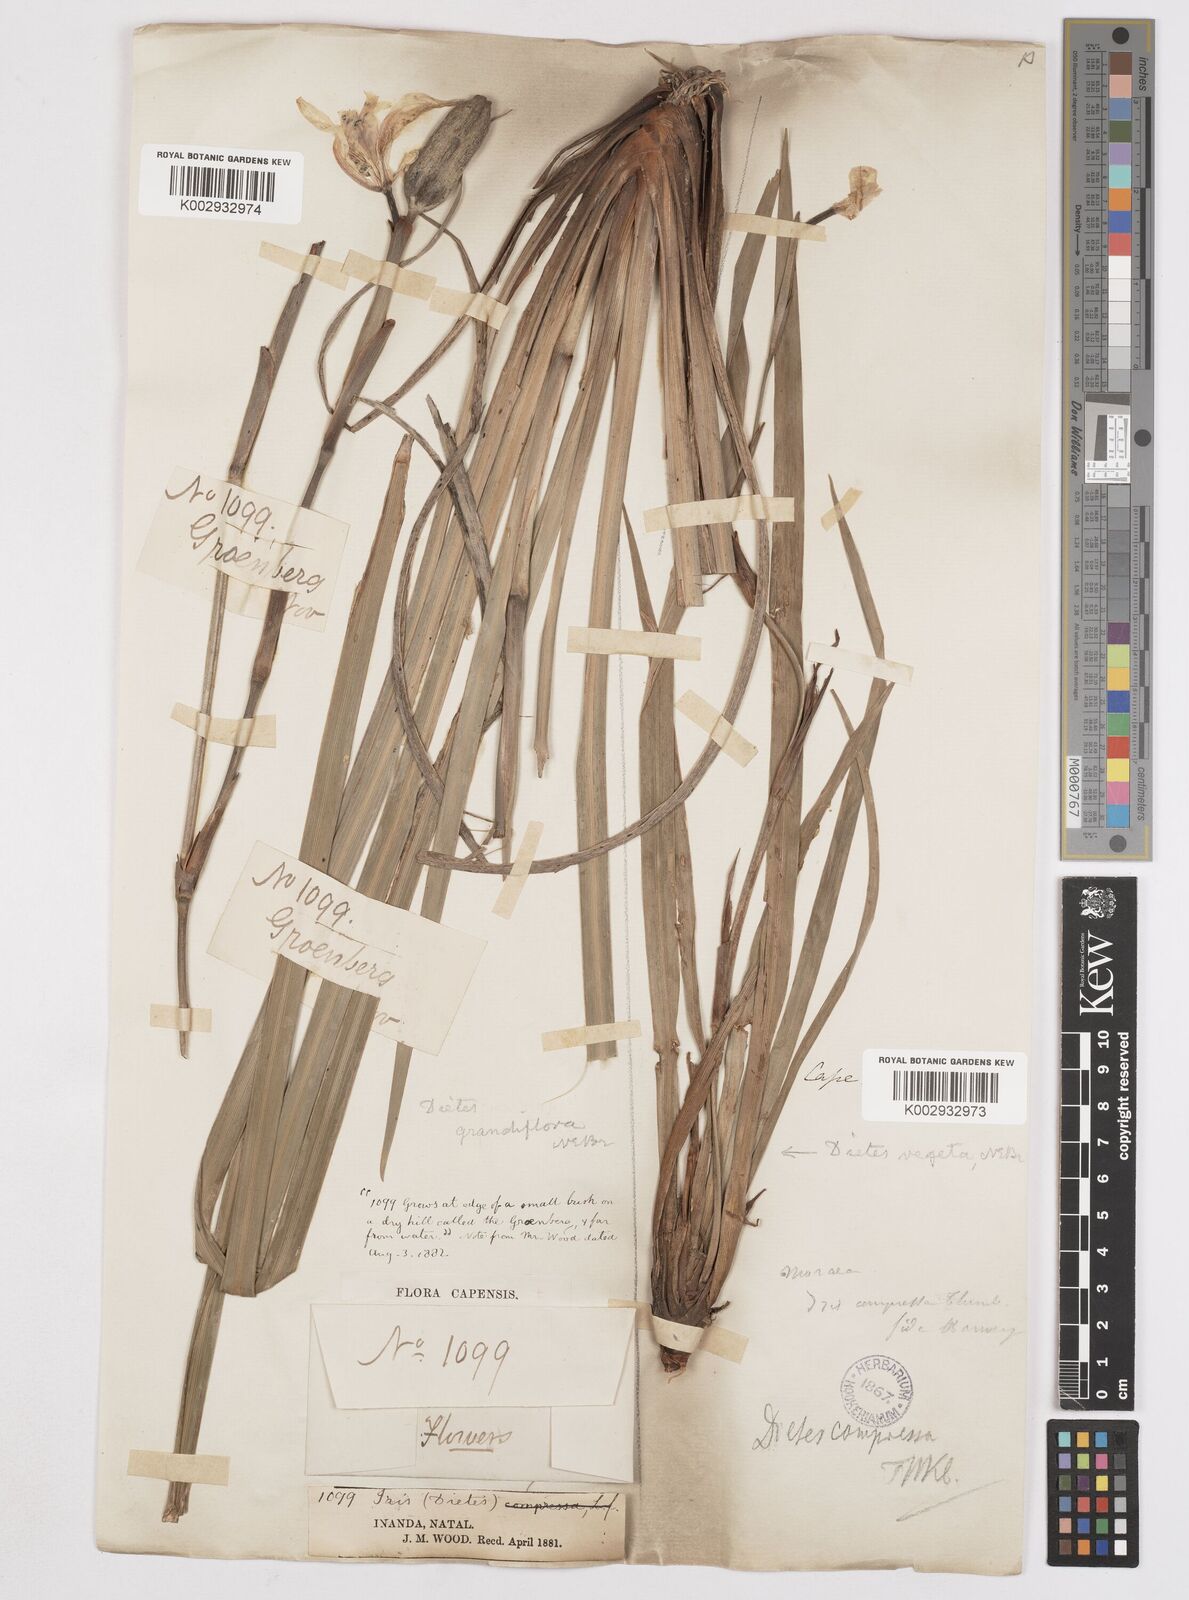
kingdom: Plantae
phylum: Tracheophyta
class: Liliopsida
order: Asparagales
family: Iridaceae
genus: Dietes
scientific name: Dietes grandiflora
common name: Wild iris
